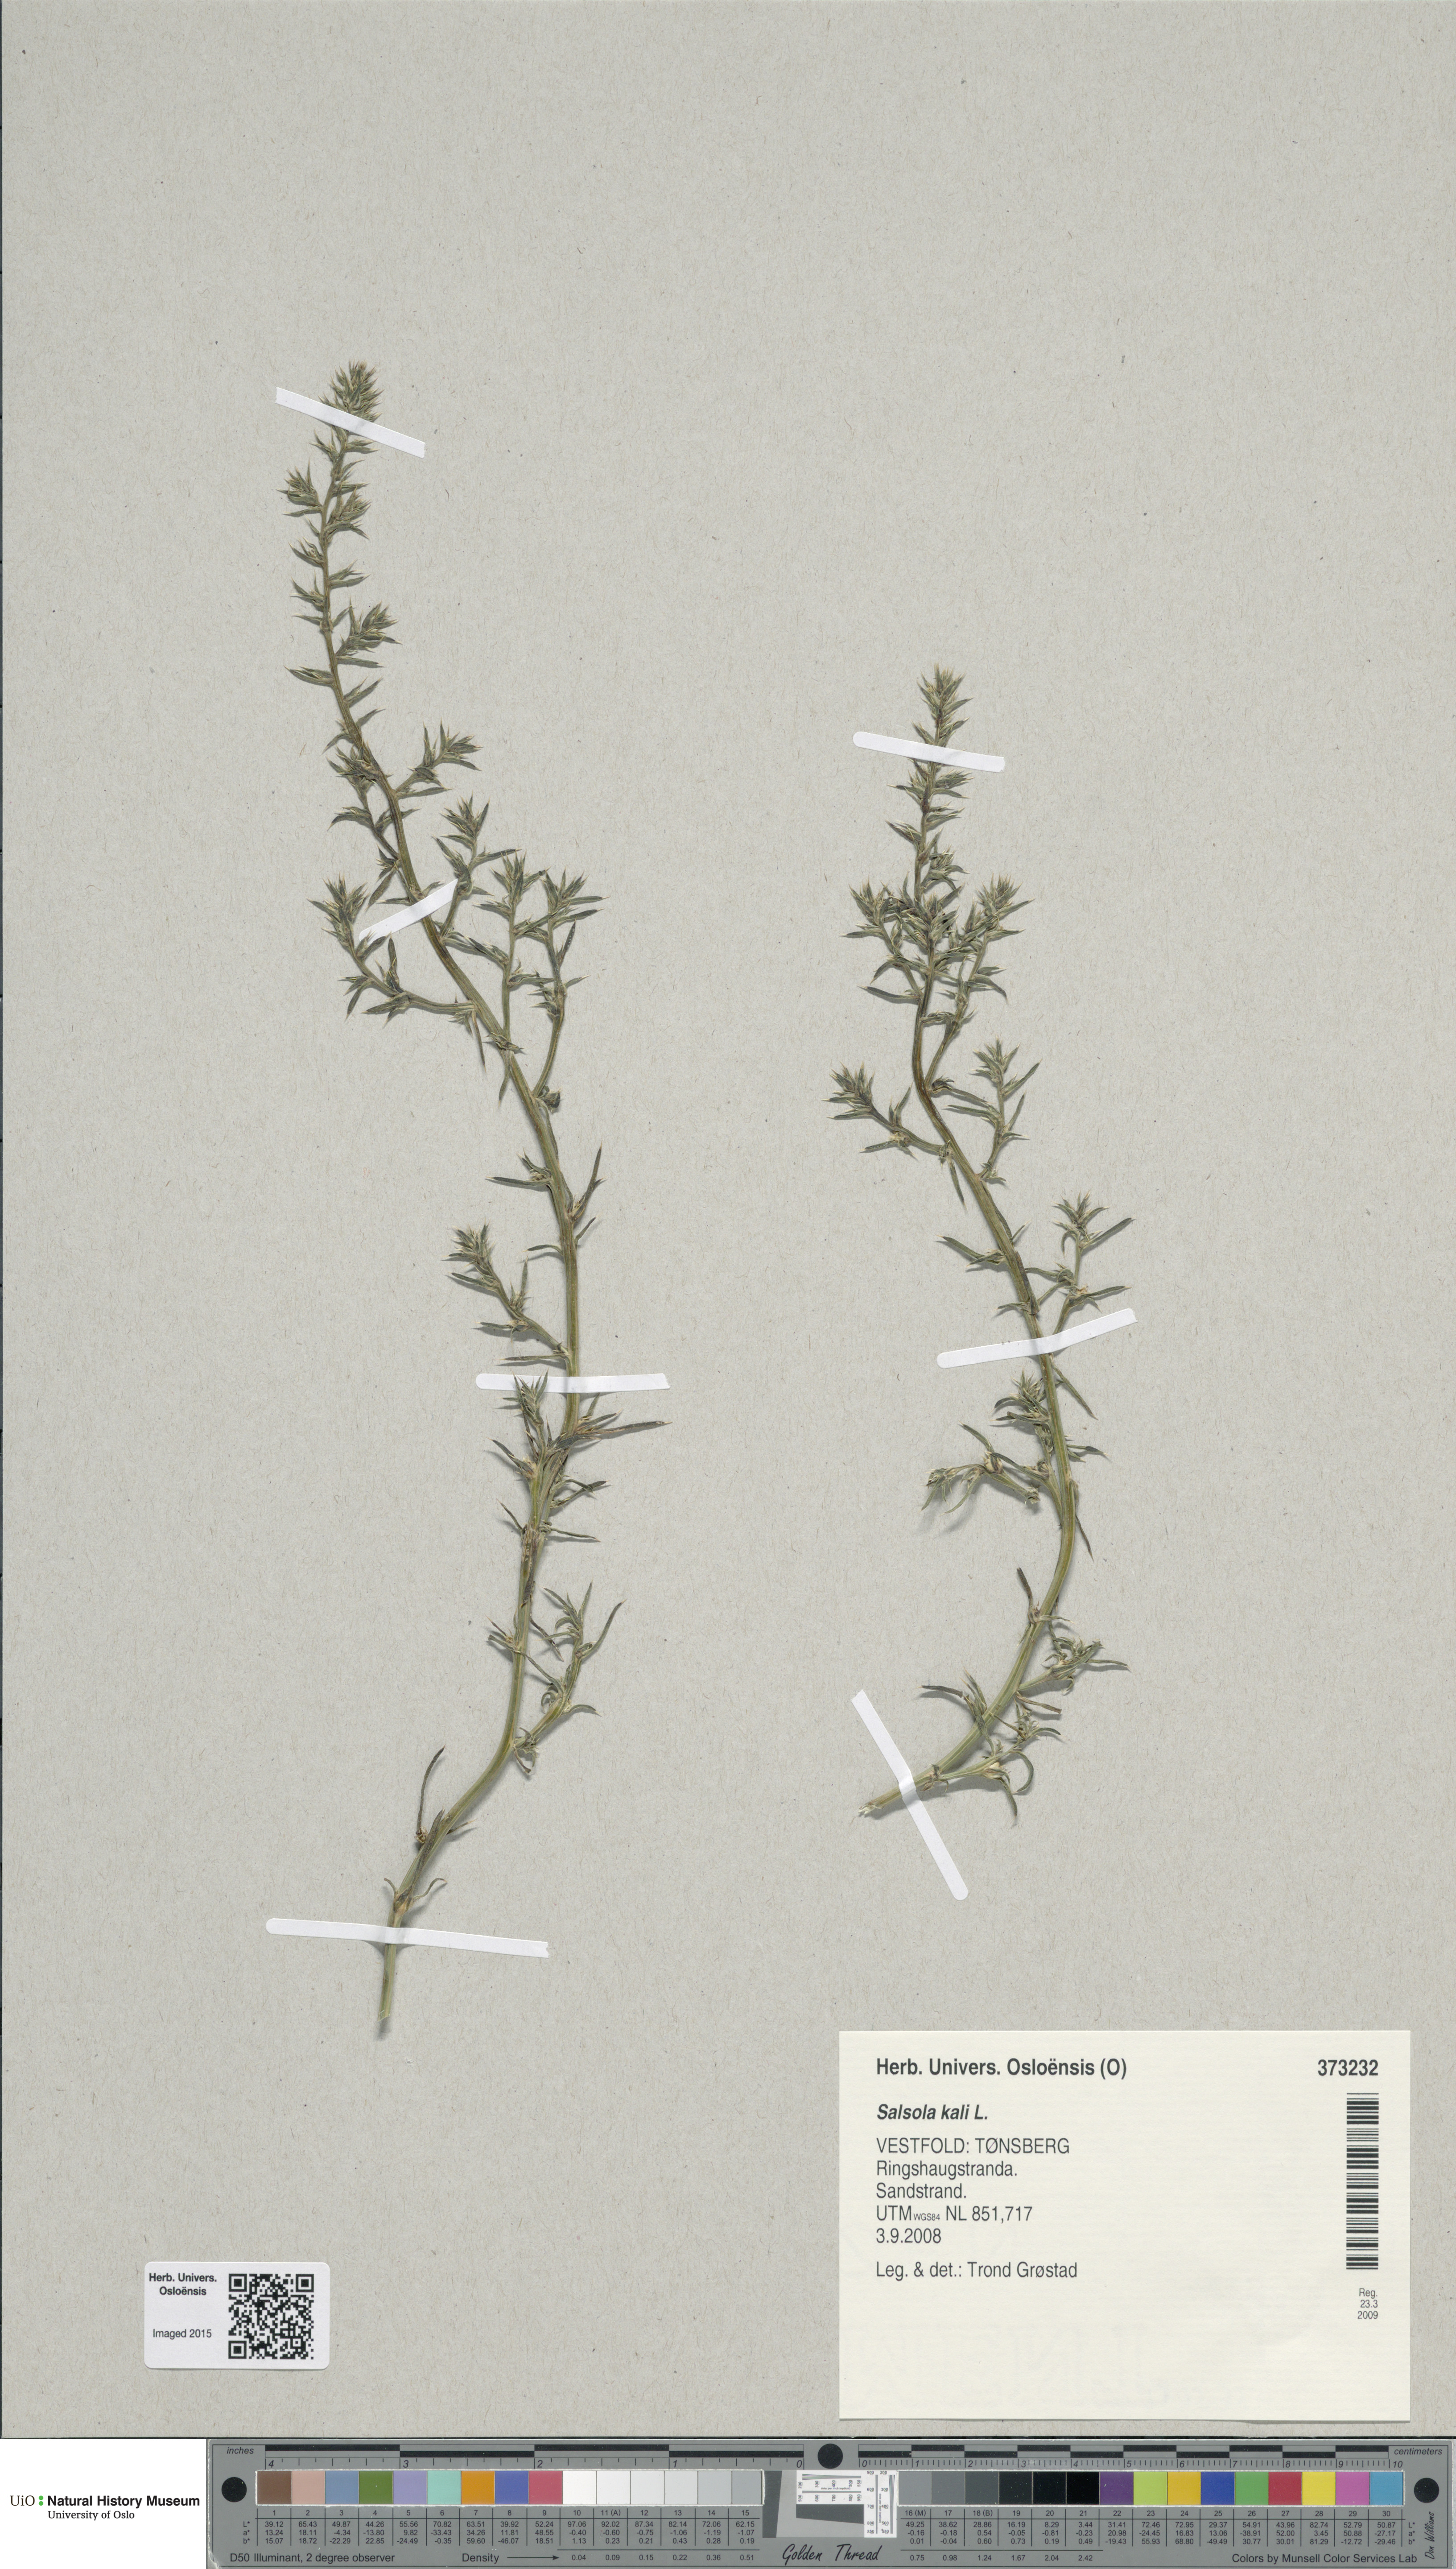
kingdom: Plantae
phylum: Tracheophyta
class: Magnoliopsida
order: Caryophyllales
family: Amaranthaceae
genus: Salsola
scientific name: Salsola kali
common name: Saltwort
